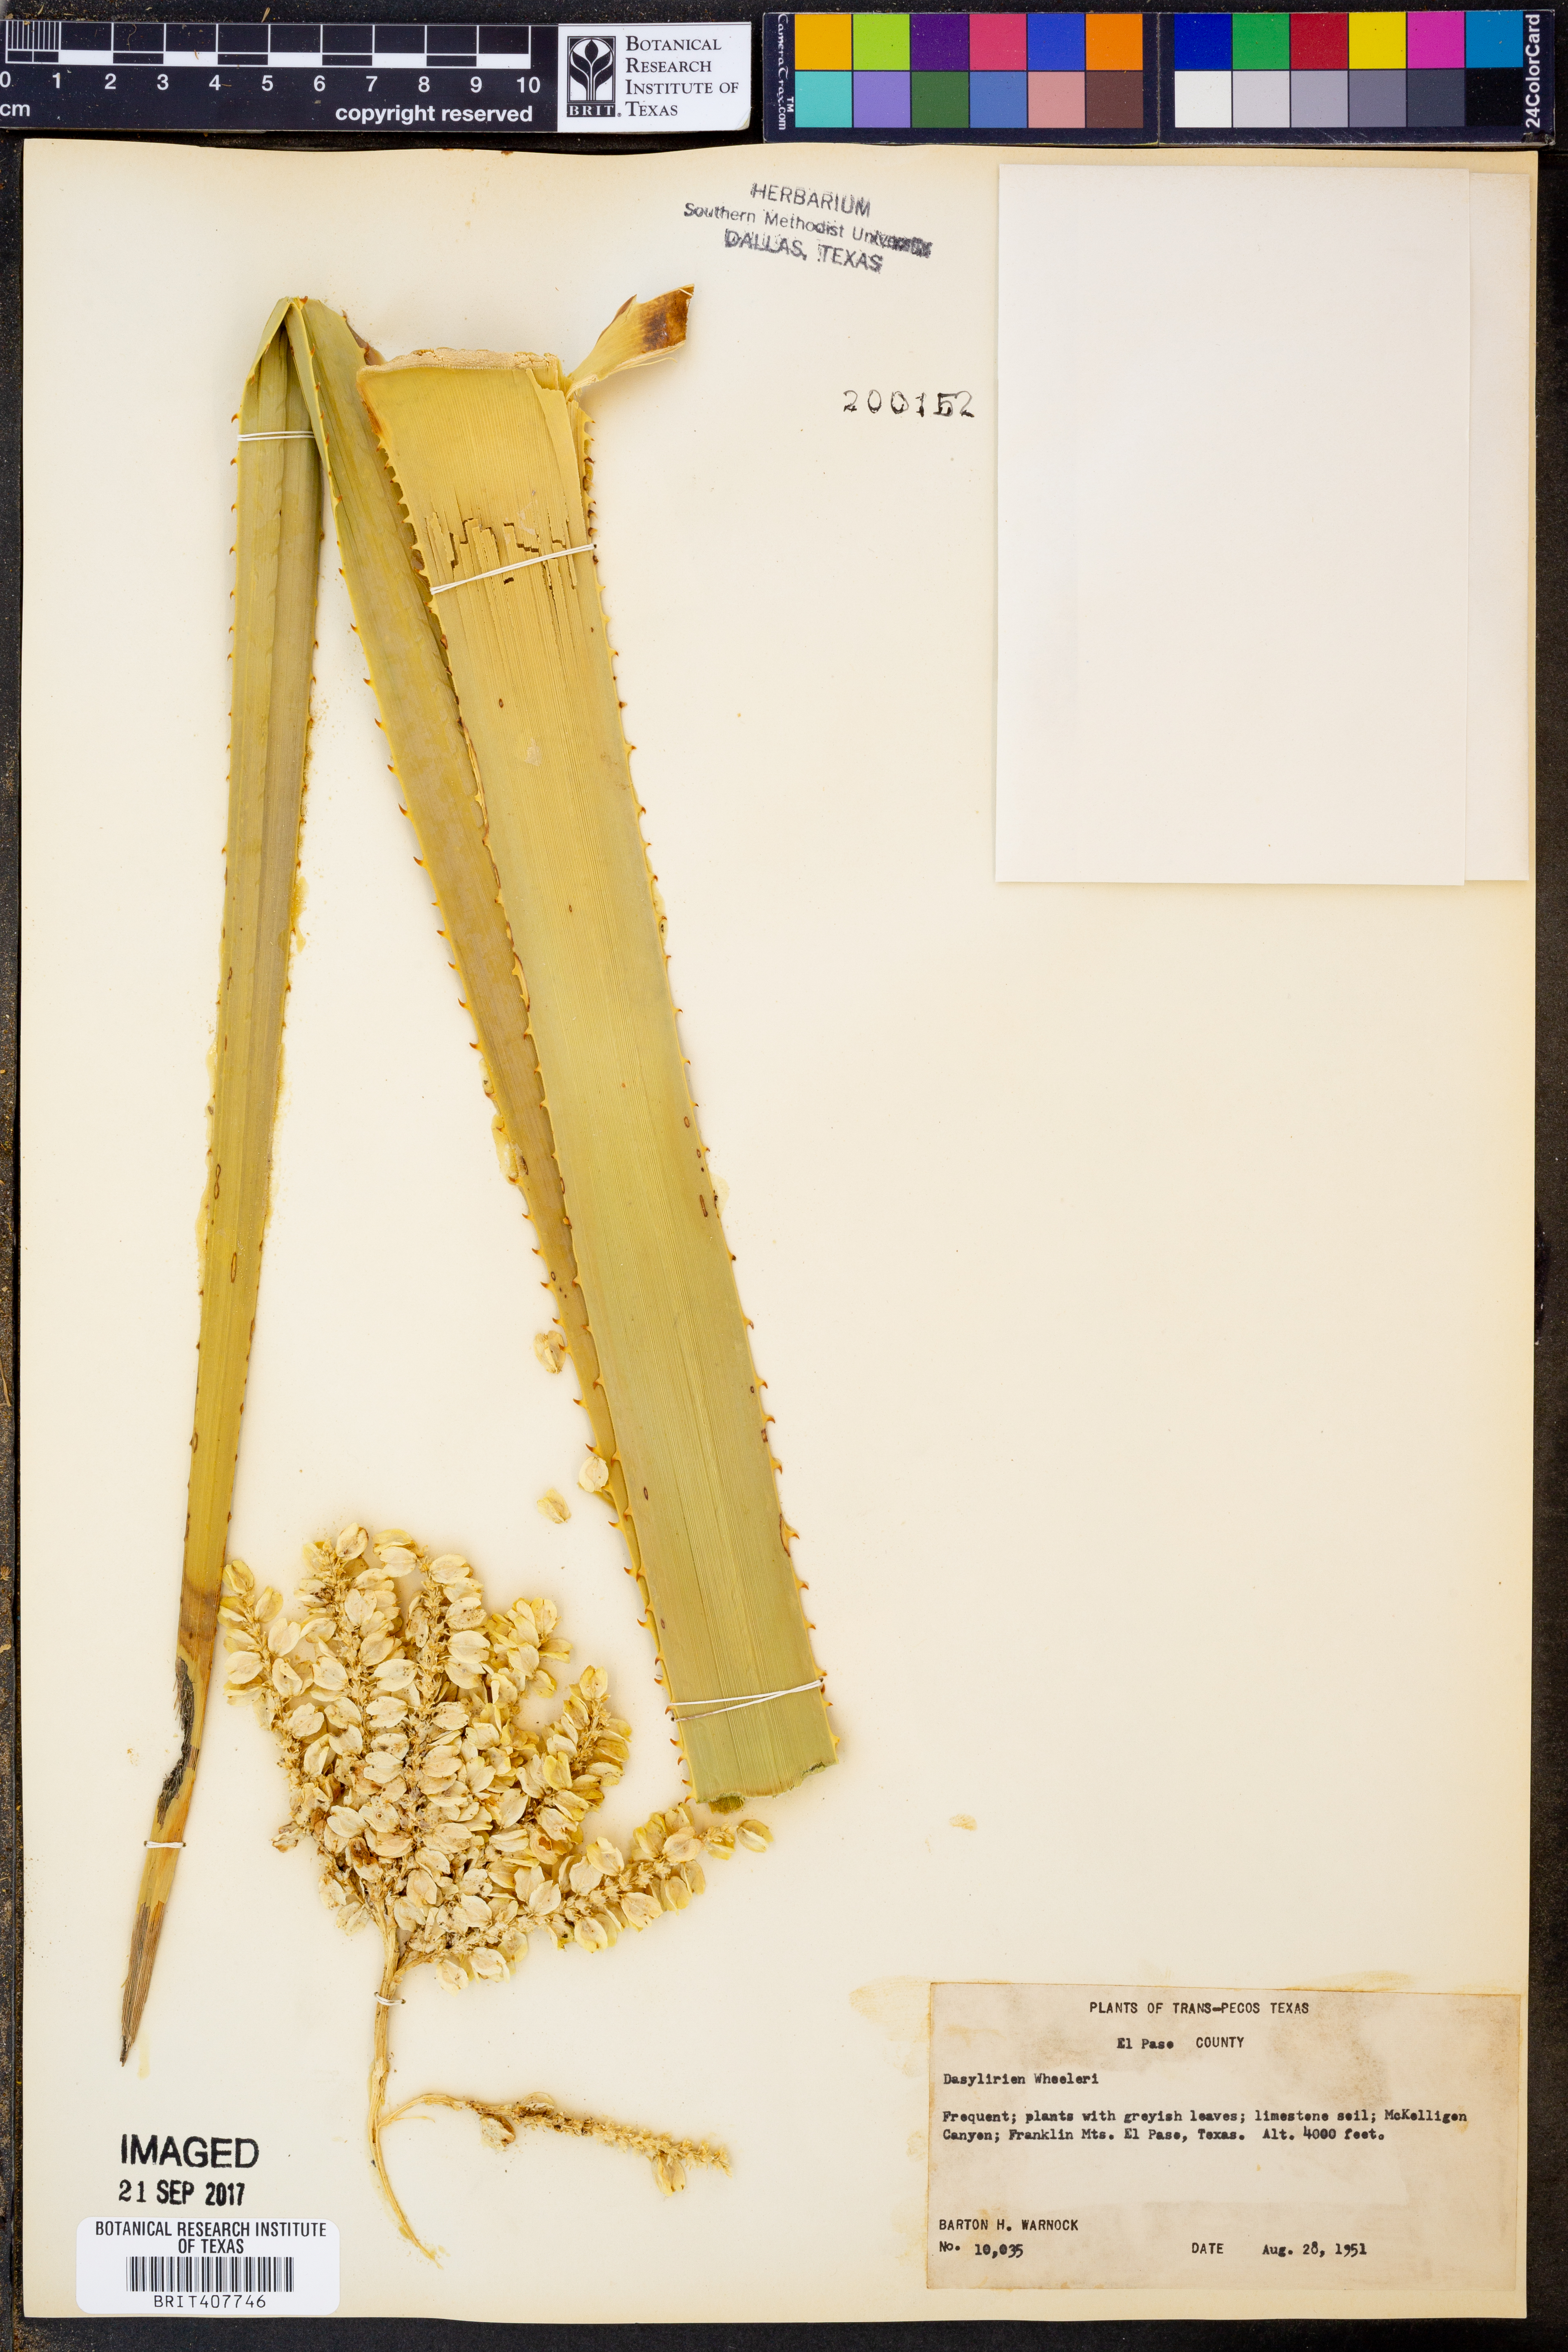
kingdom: Plantae
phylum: Tracheophyta
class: Liliopsida
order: Asparagales
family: Asparagaceae
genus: Dasylirion
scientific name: Dasylirion wheeleri
